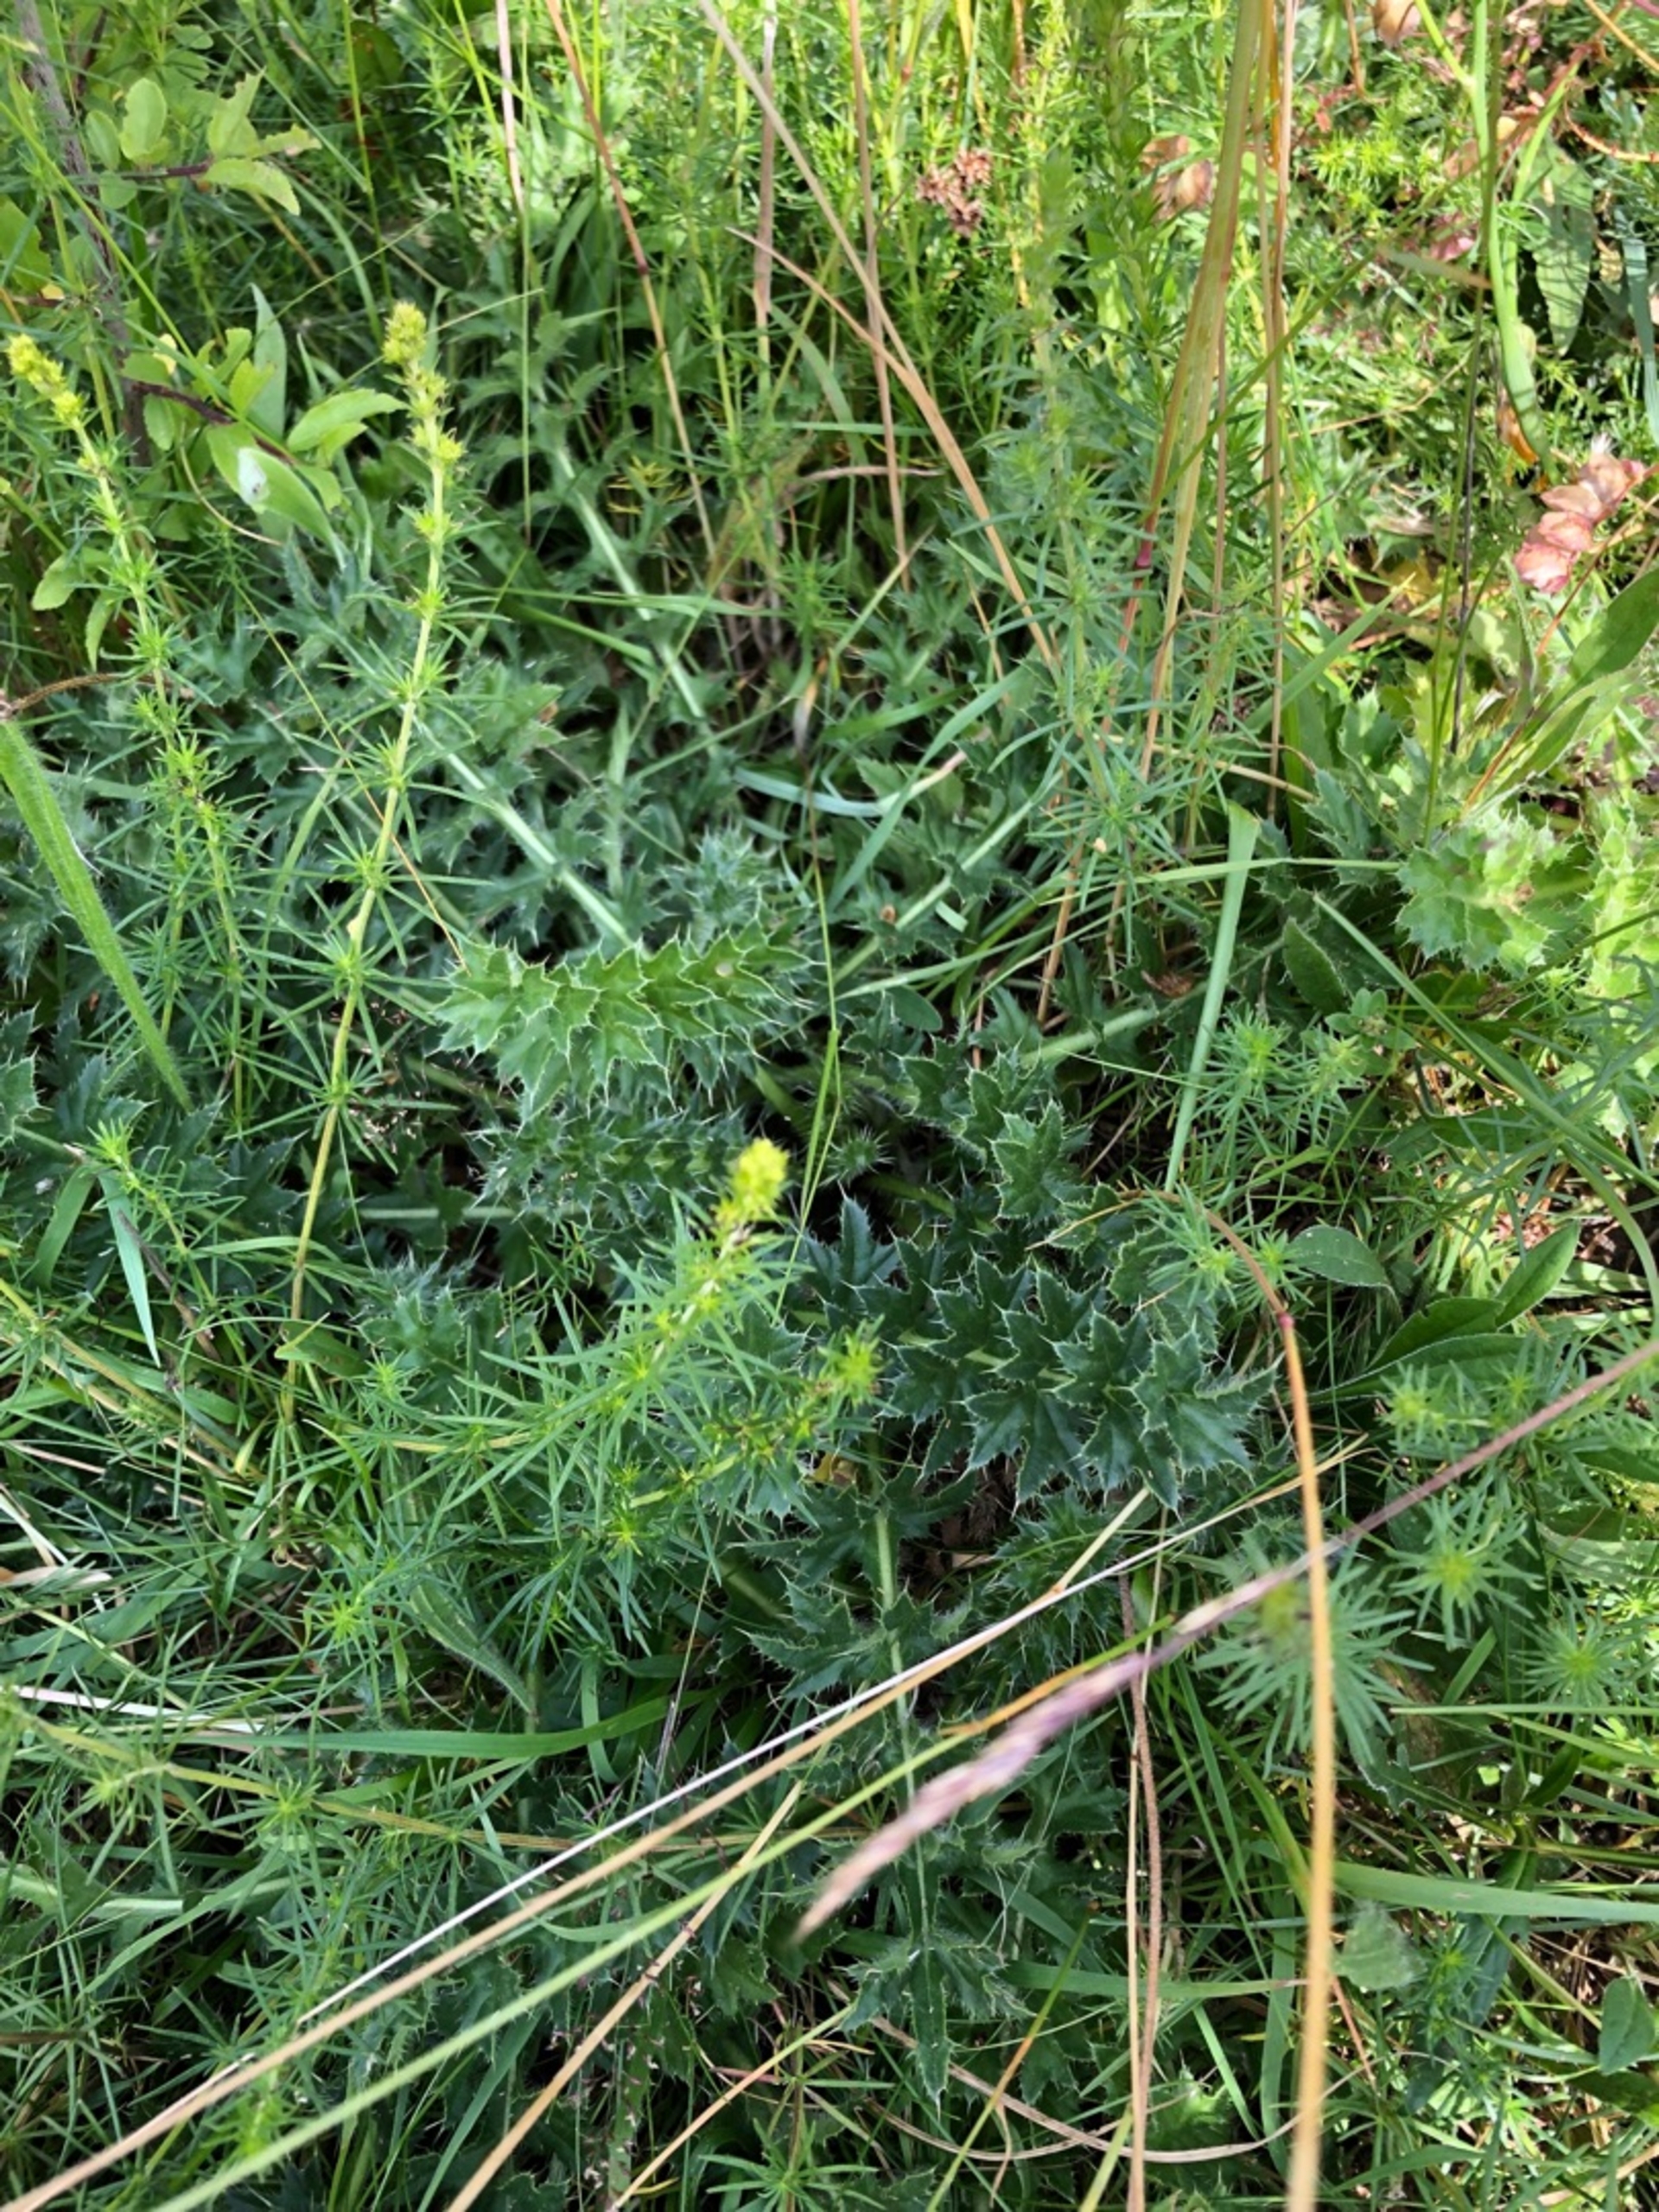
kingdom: Plantae
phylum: Tracheophyta
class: Magnoliopsida
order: Asterales
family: Asteraceae
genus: Cirsium
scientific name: Cirsium acaule
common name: Lav tidsel
